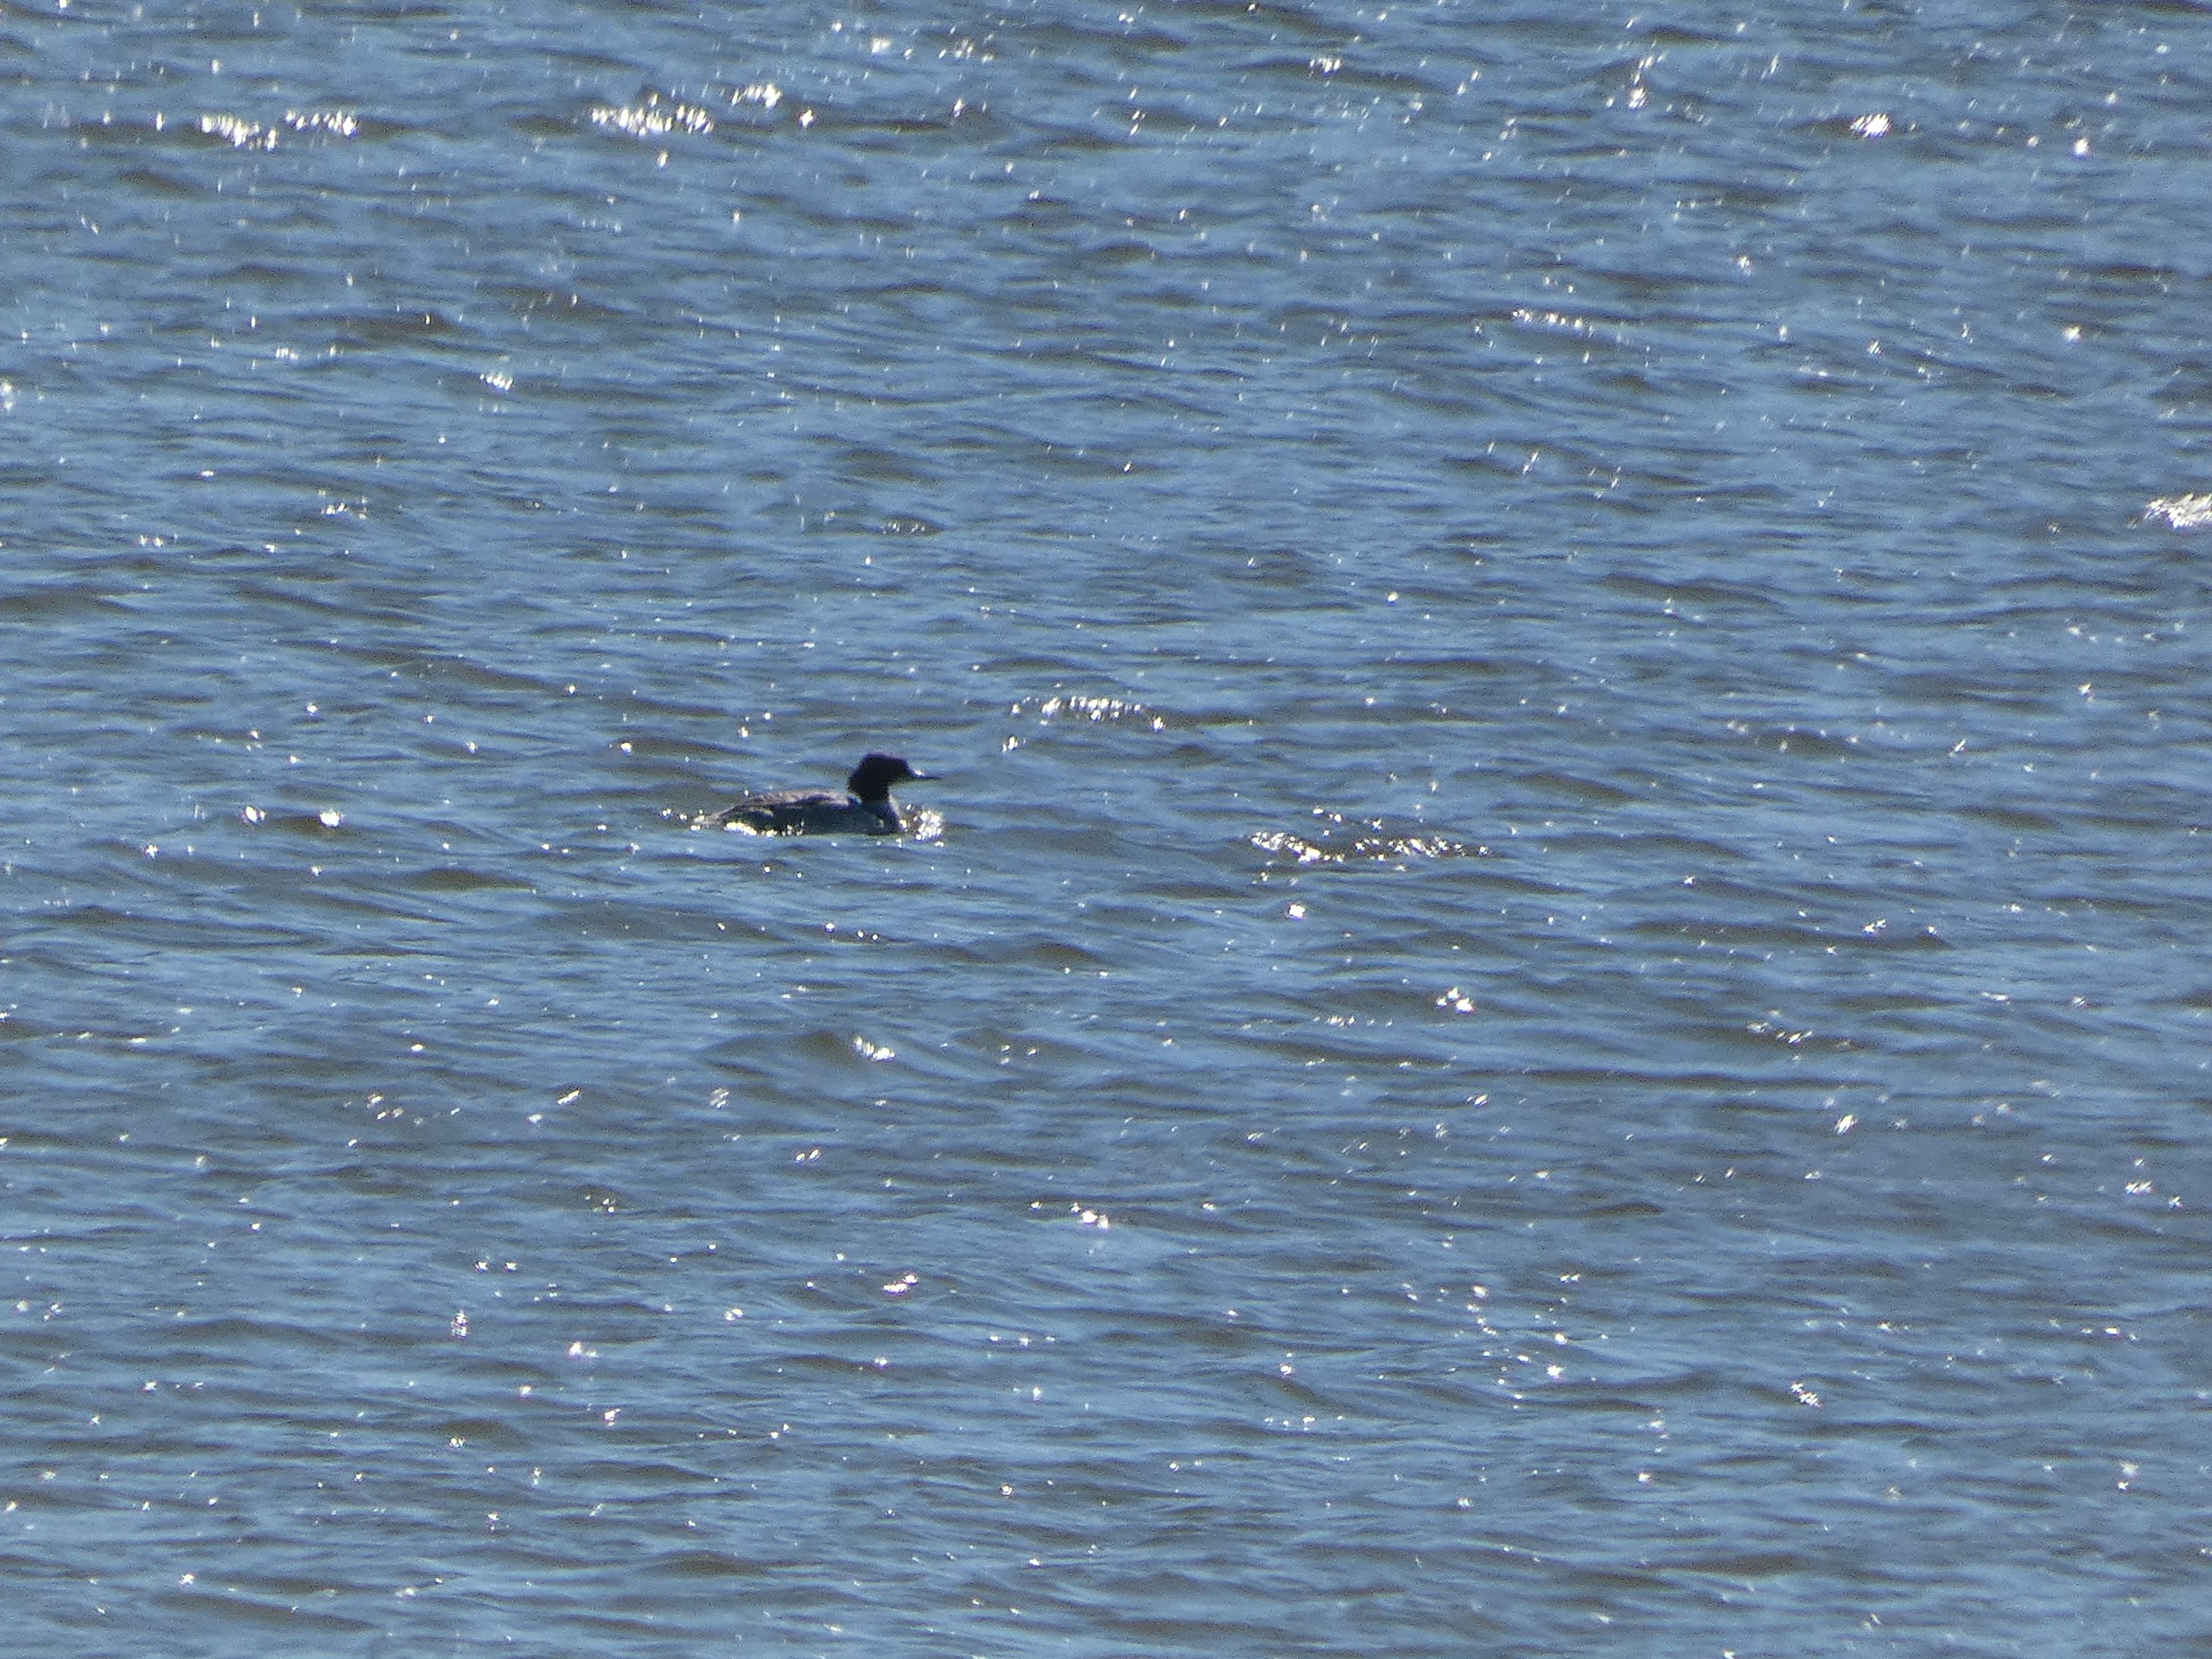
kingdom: Animalia
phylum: Chordata
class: Aves
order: Anseriformes
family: Anatidae
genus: Mergus
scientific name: Mergus merganser
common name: Stor skallesluger
